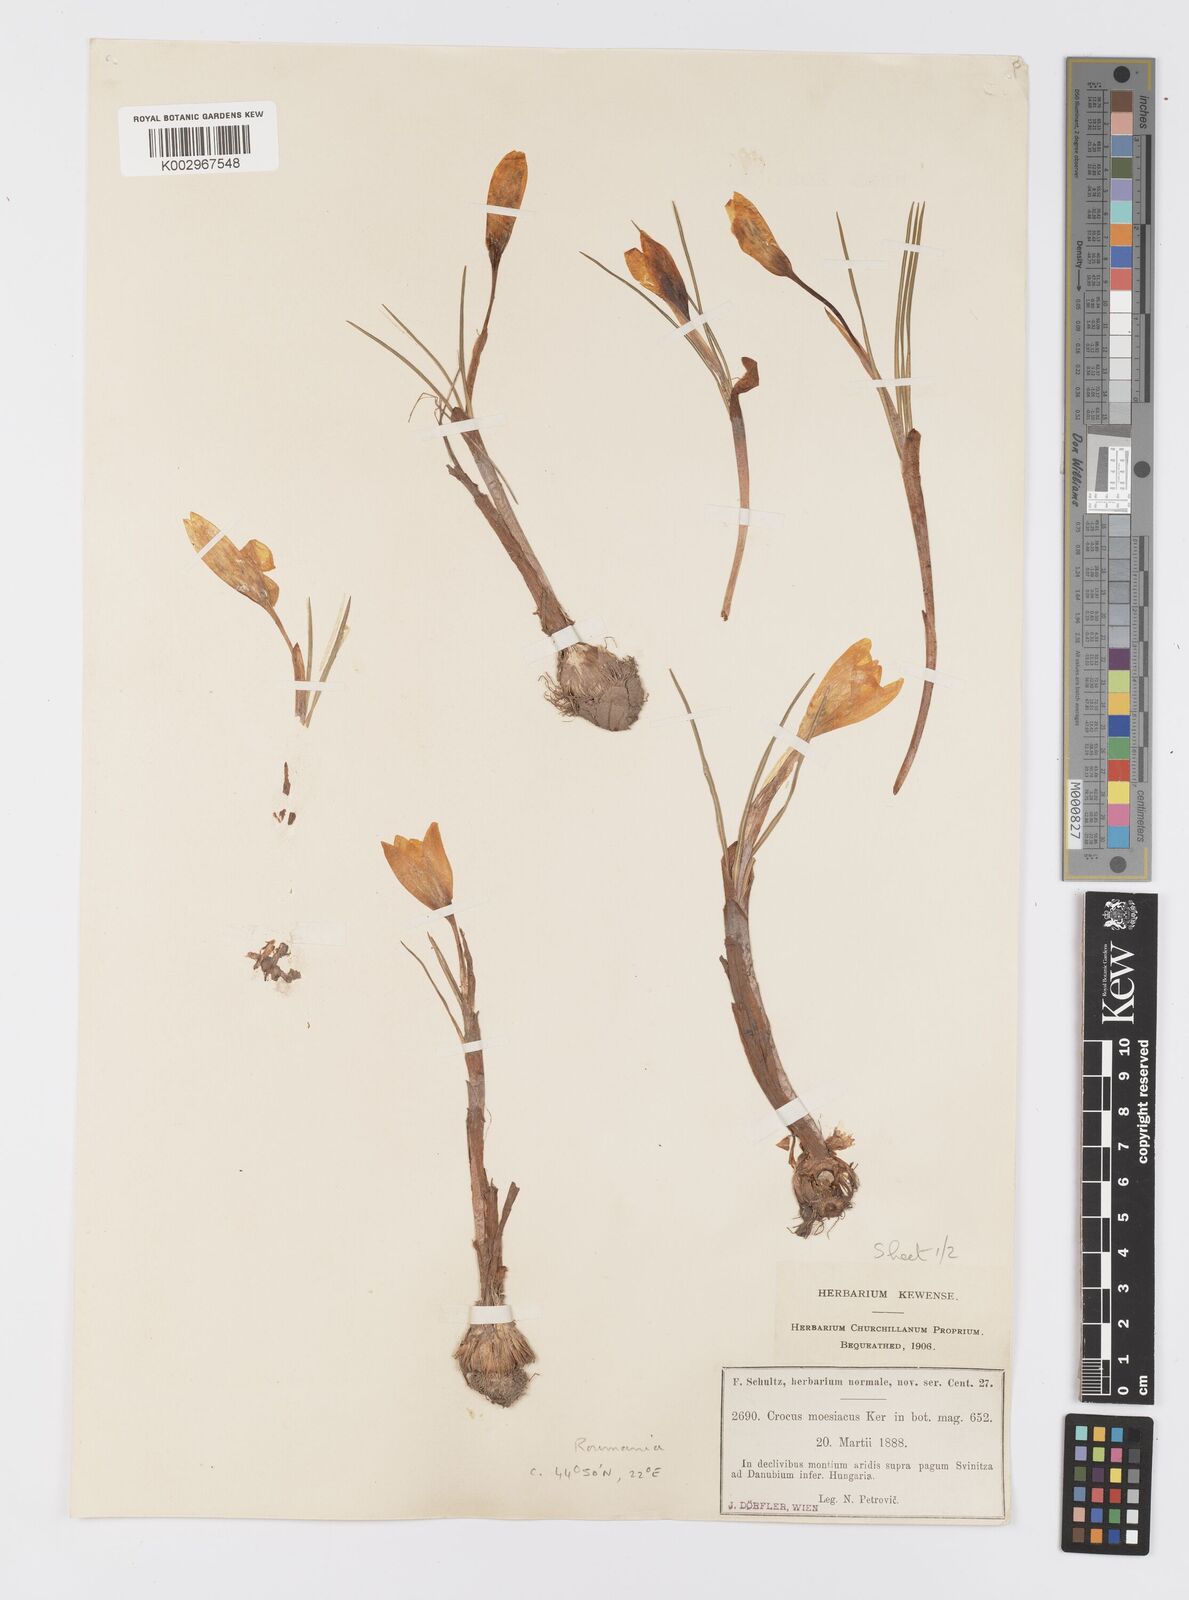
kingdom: Plantae
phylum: Tracheophyta
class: Liliopsida
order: Asparagales
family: Iridaceae
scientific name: Iridaceae
